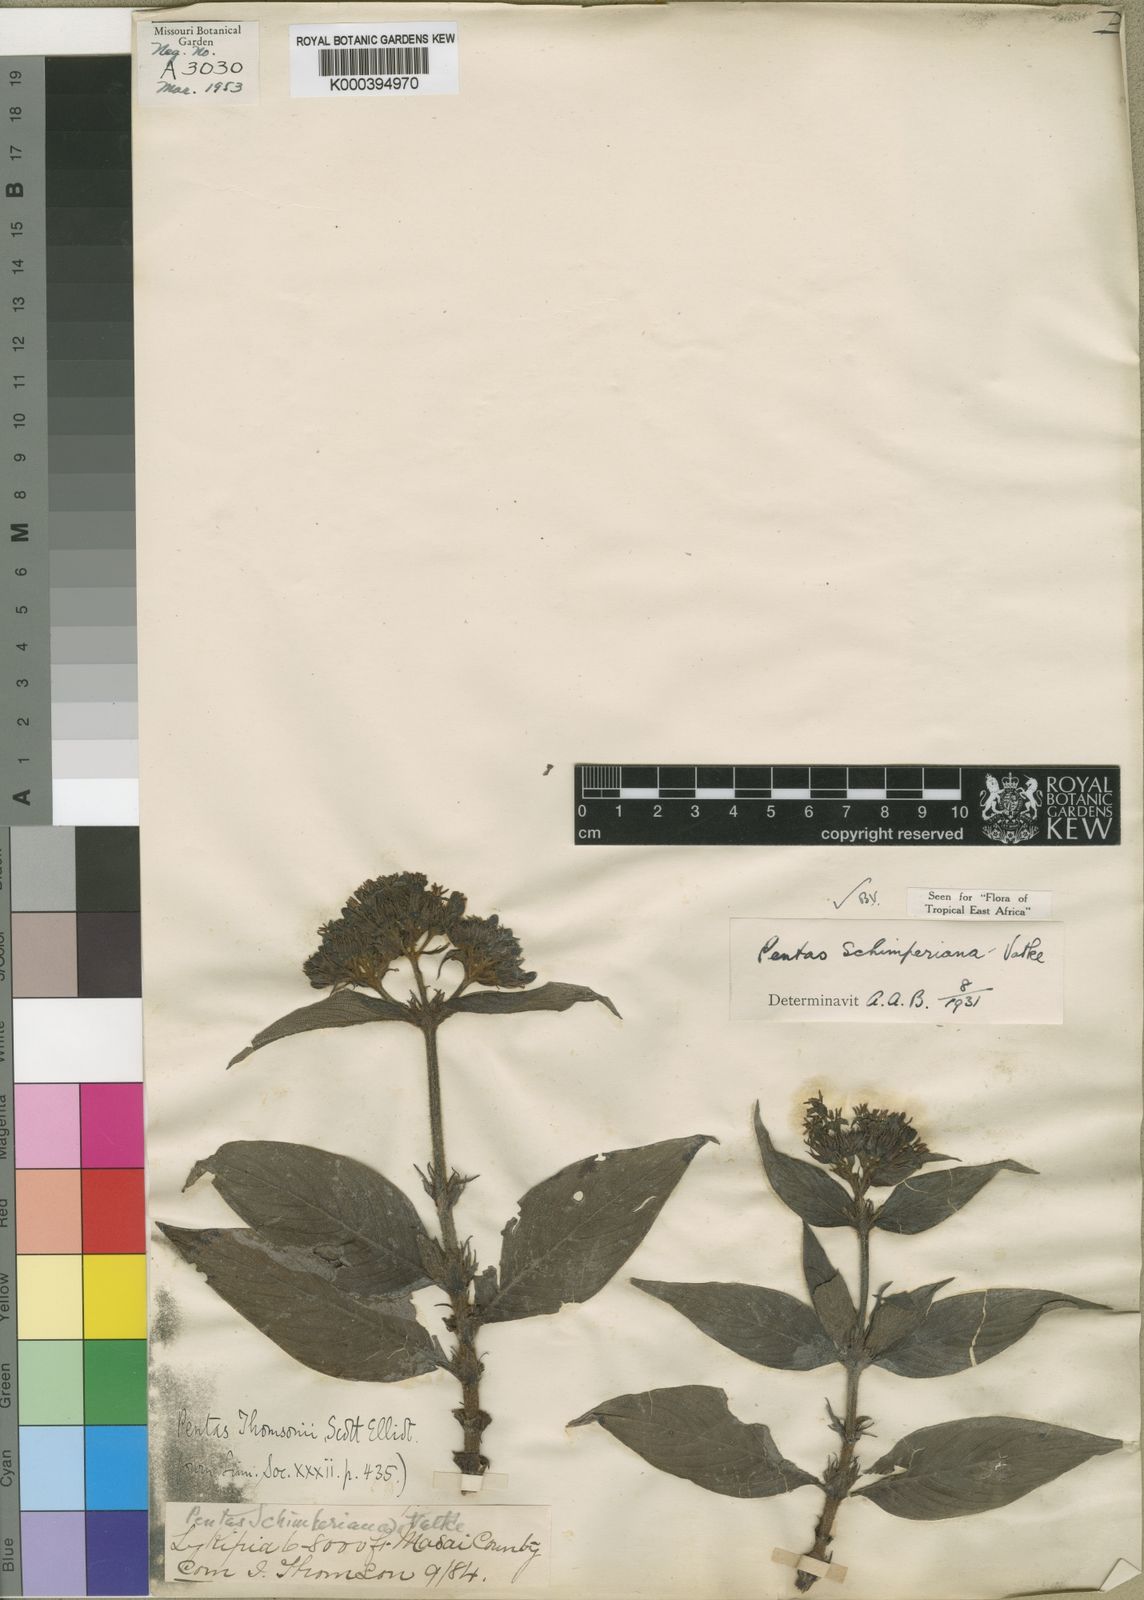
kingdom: Plantae
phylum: Tracheophyta
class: Magnoliopsida
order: Gentianales
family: Rubiaceae
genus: Phyllopentas
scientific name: Phyllopentas schimperi
